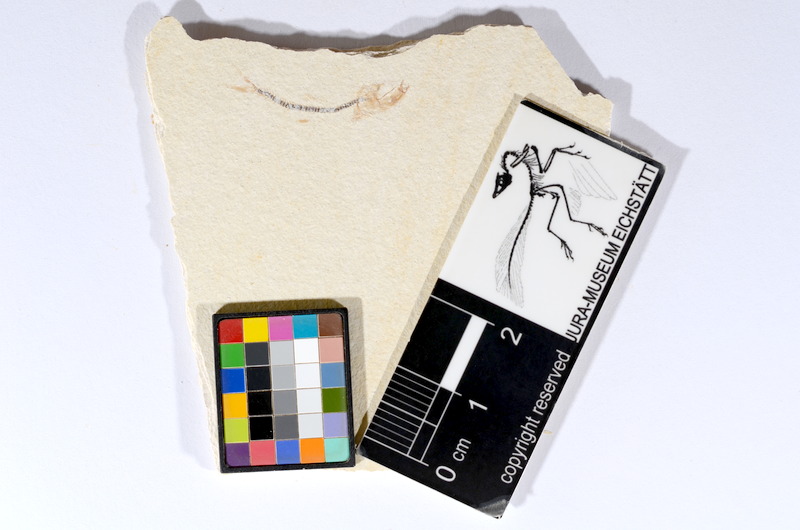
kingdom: Animalia
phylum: Chordata
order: Salmoniformes
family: Orthogonikleithridae
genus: Orthogonikleithrus
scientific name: Orthogonikleithrus hoelli
